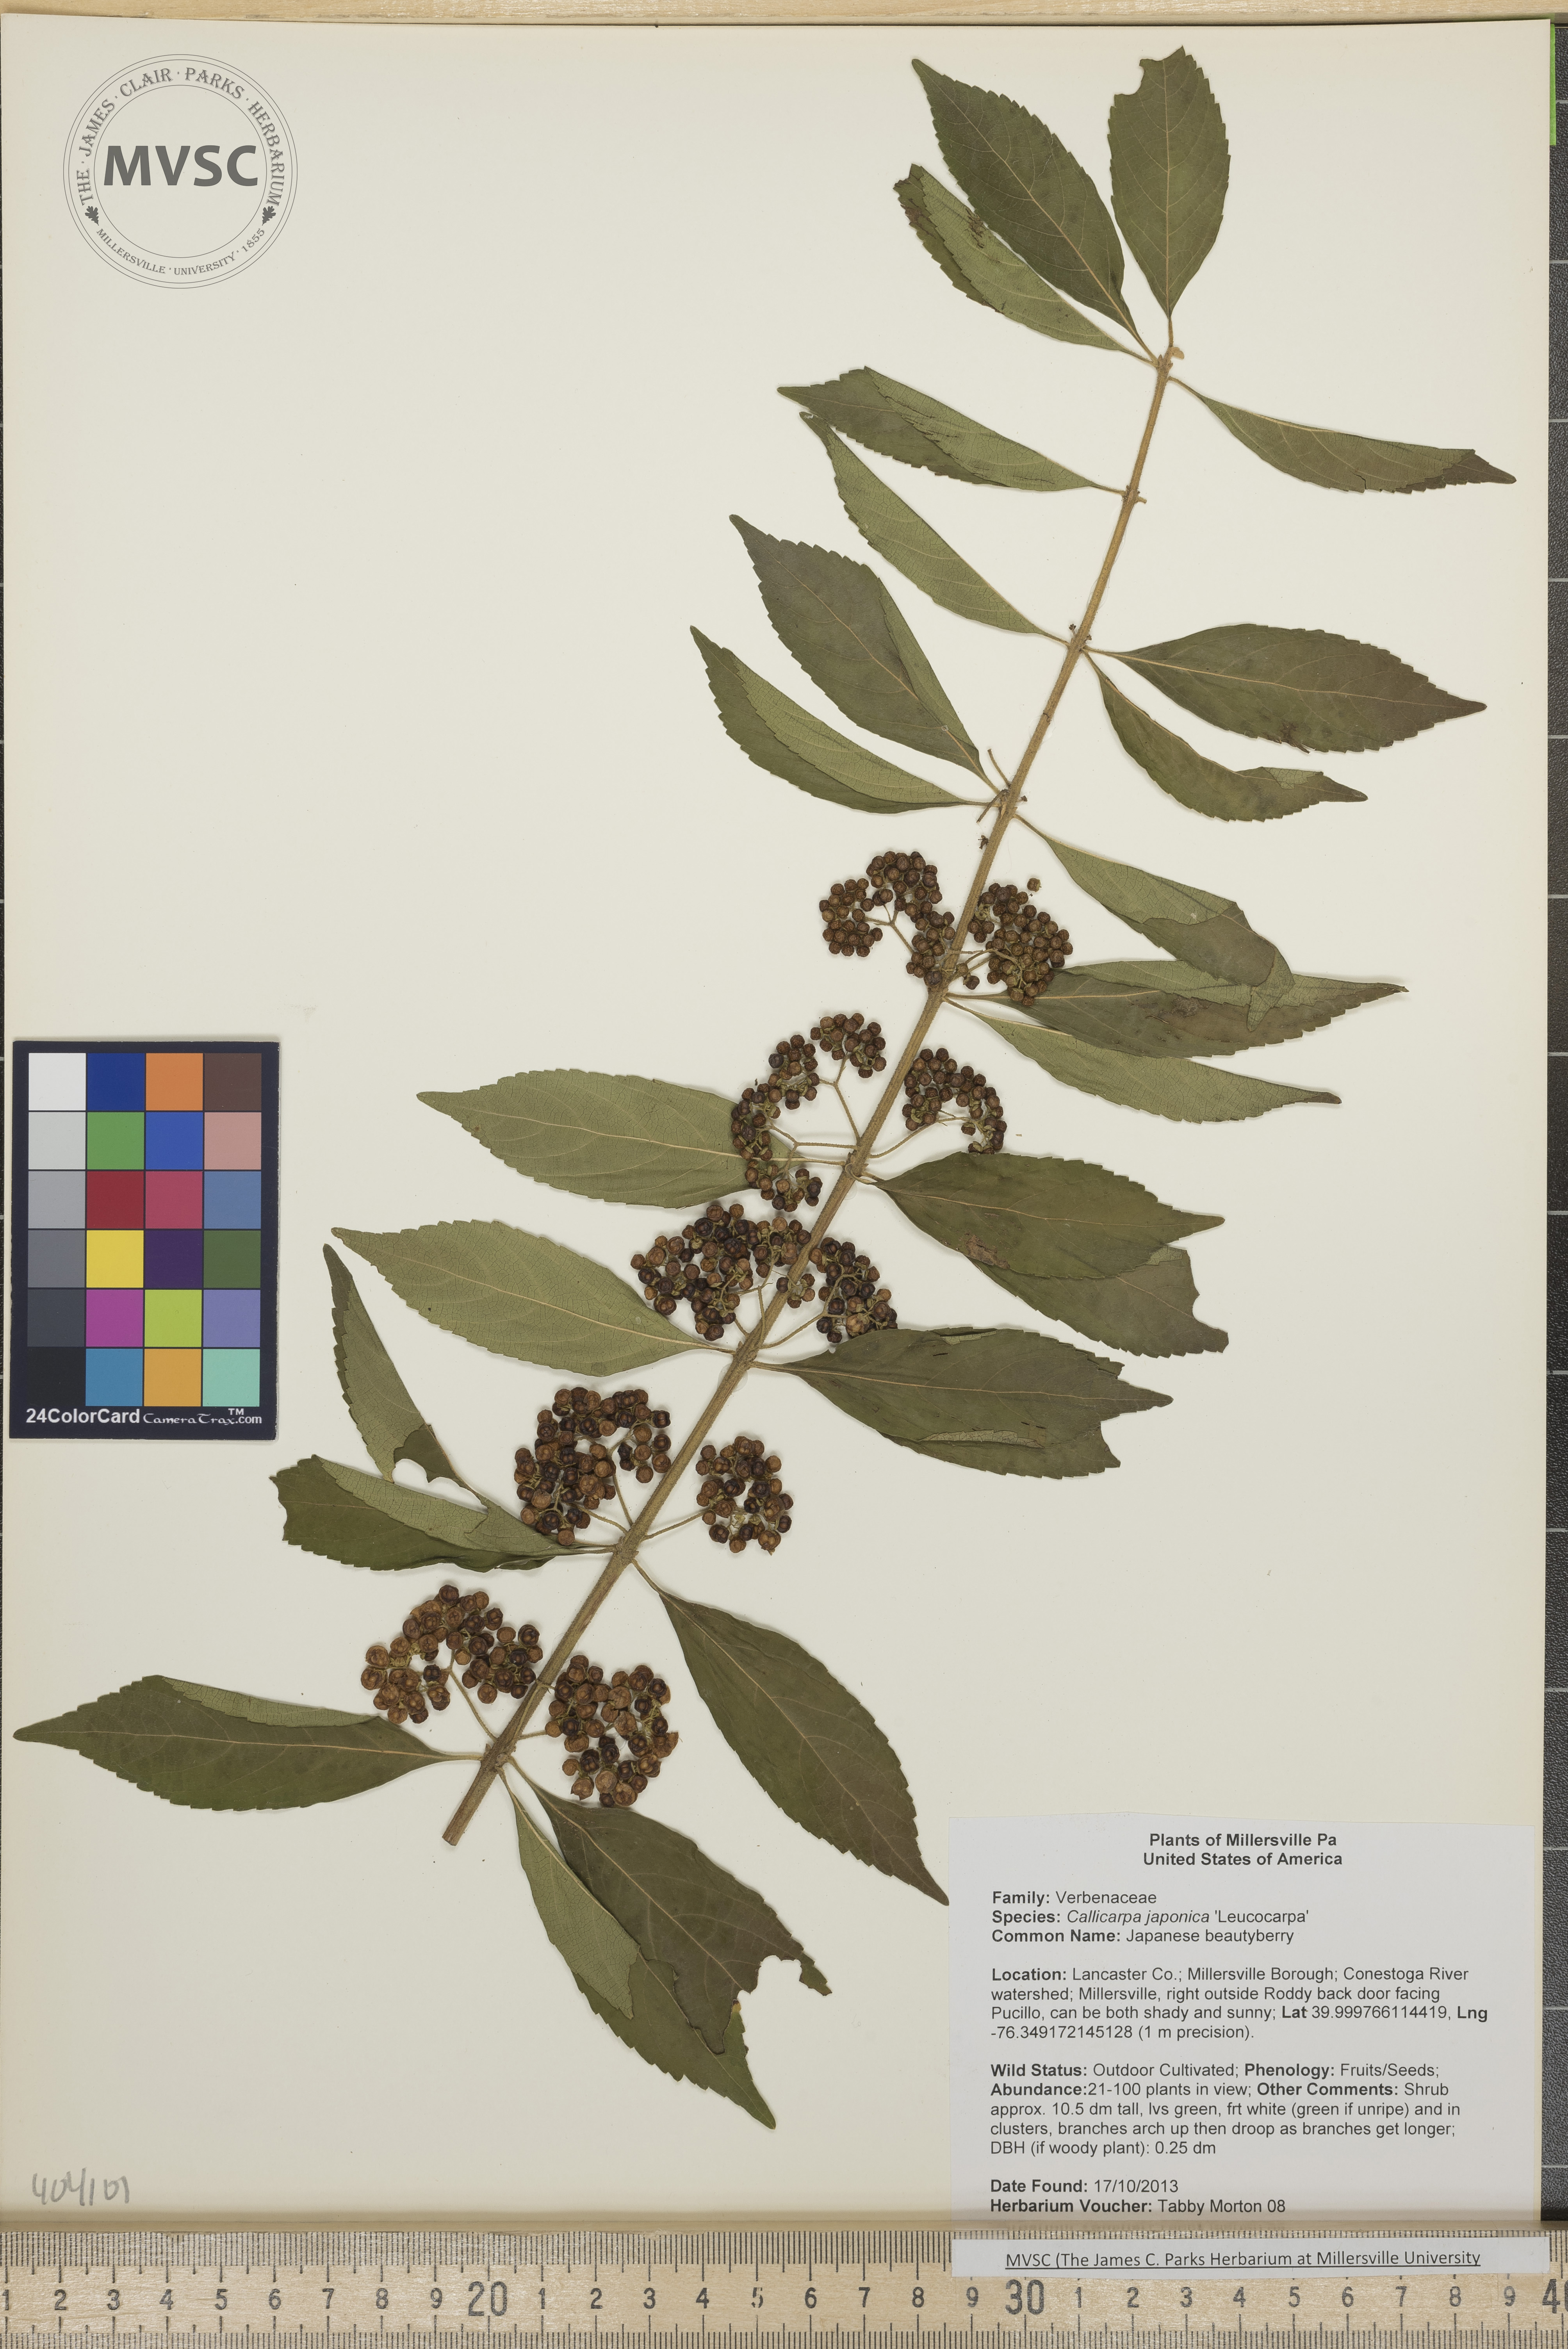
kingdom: Plantae
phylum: Tracheophyta
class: Magnoliopsida
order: Lamiales
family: Lamiaceae
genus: Callicarpa
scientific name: Callicarpa dichotoma
